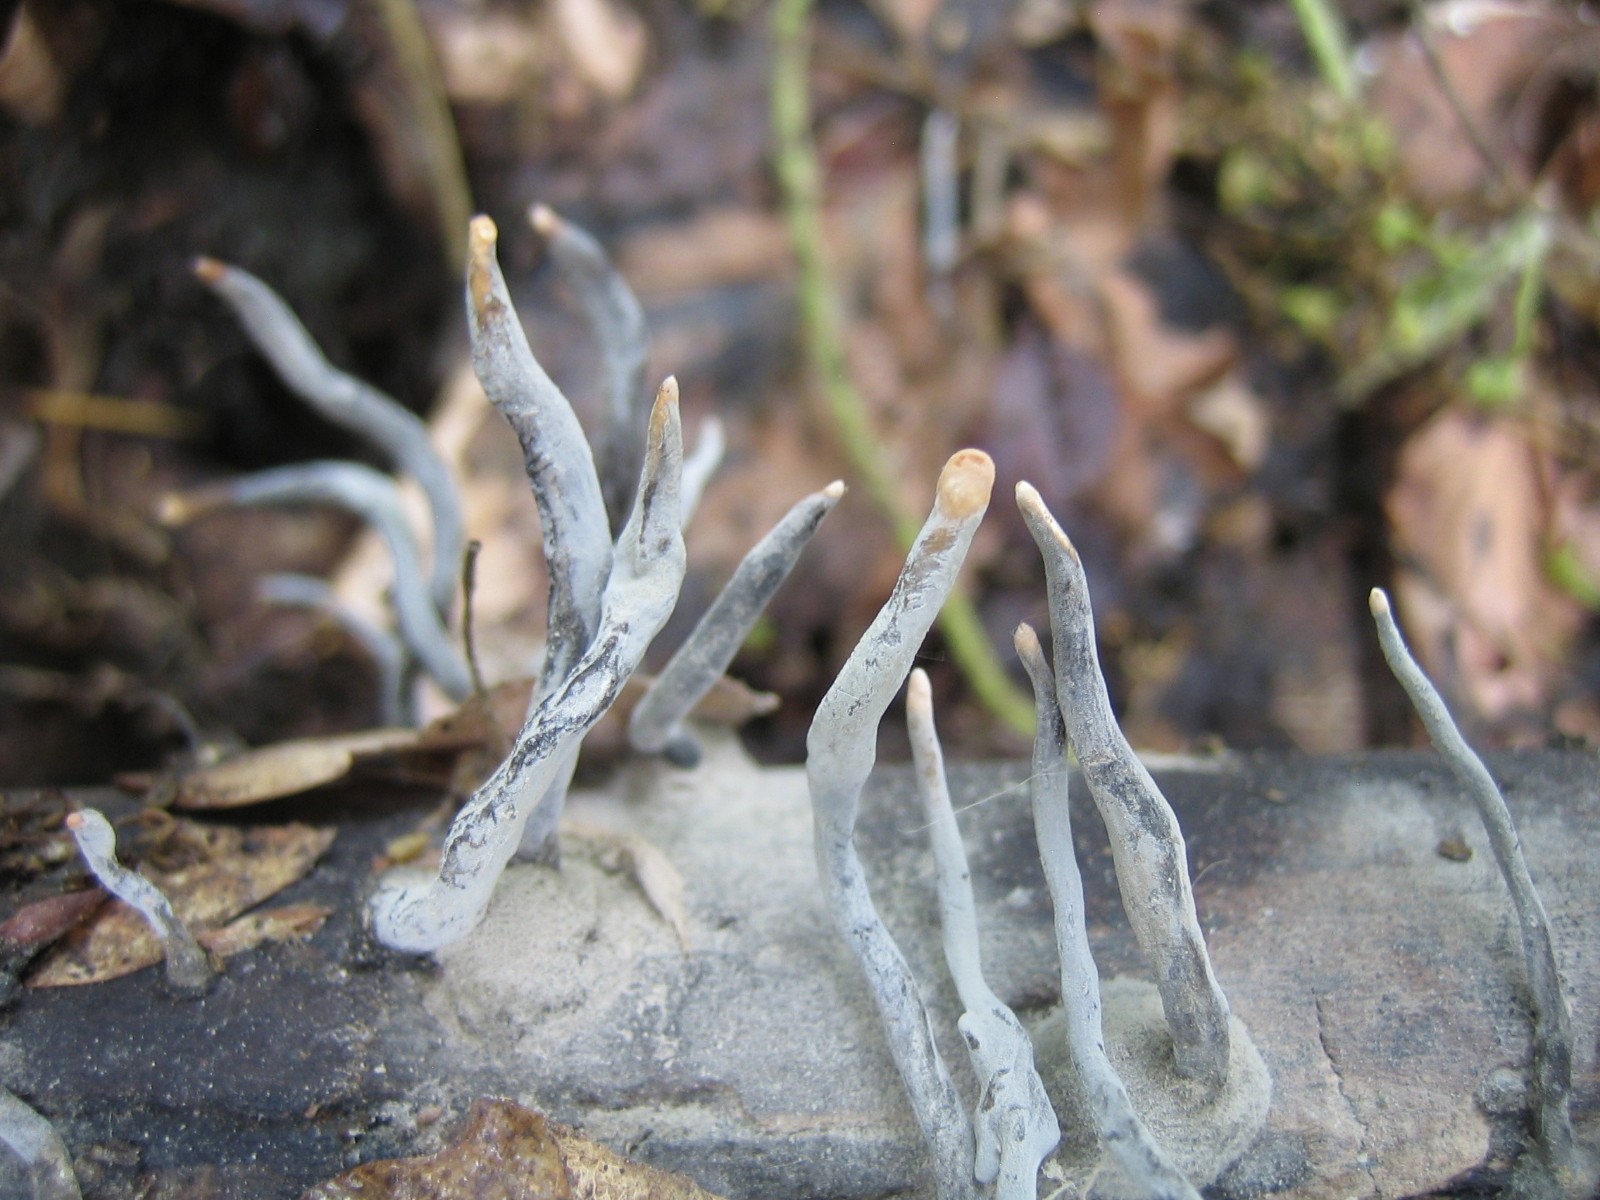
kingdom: Fungi
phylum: Ascomycota
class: Sordariomycetes
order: Xylariales
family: Xylariaceae
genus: Xylaria
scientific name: Xylaria hypoxylon
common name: grenet stødsvamp
